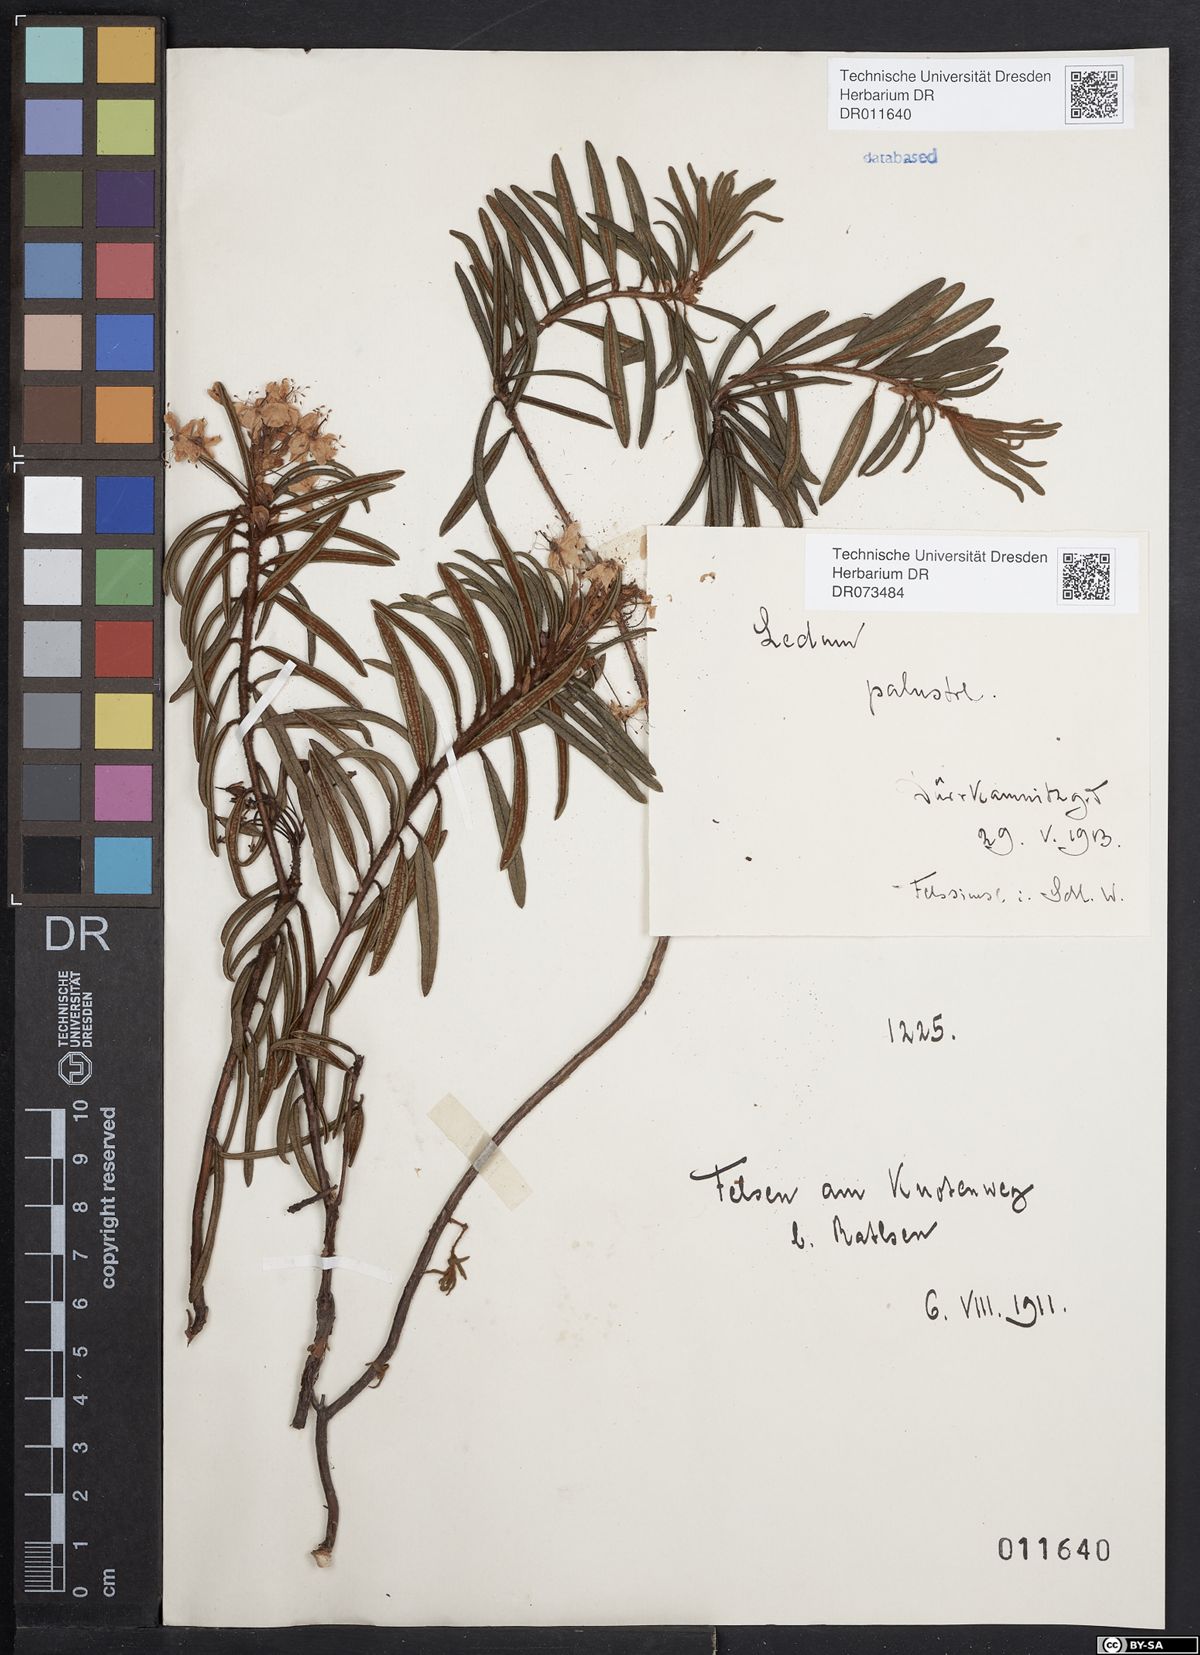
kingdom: Plantae
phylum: Tracheophyta
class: Magnoliopsida
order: Ericales
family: Ericaceae
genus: Rhododendron
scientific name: Rhododendron tomentosum
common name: Marsh labrador tea
